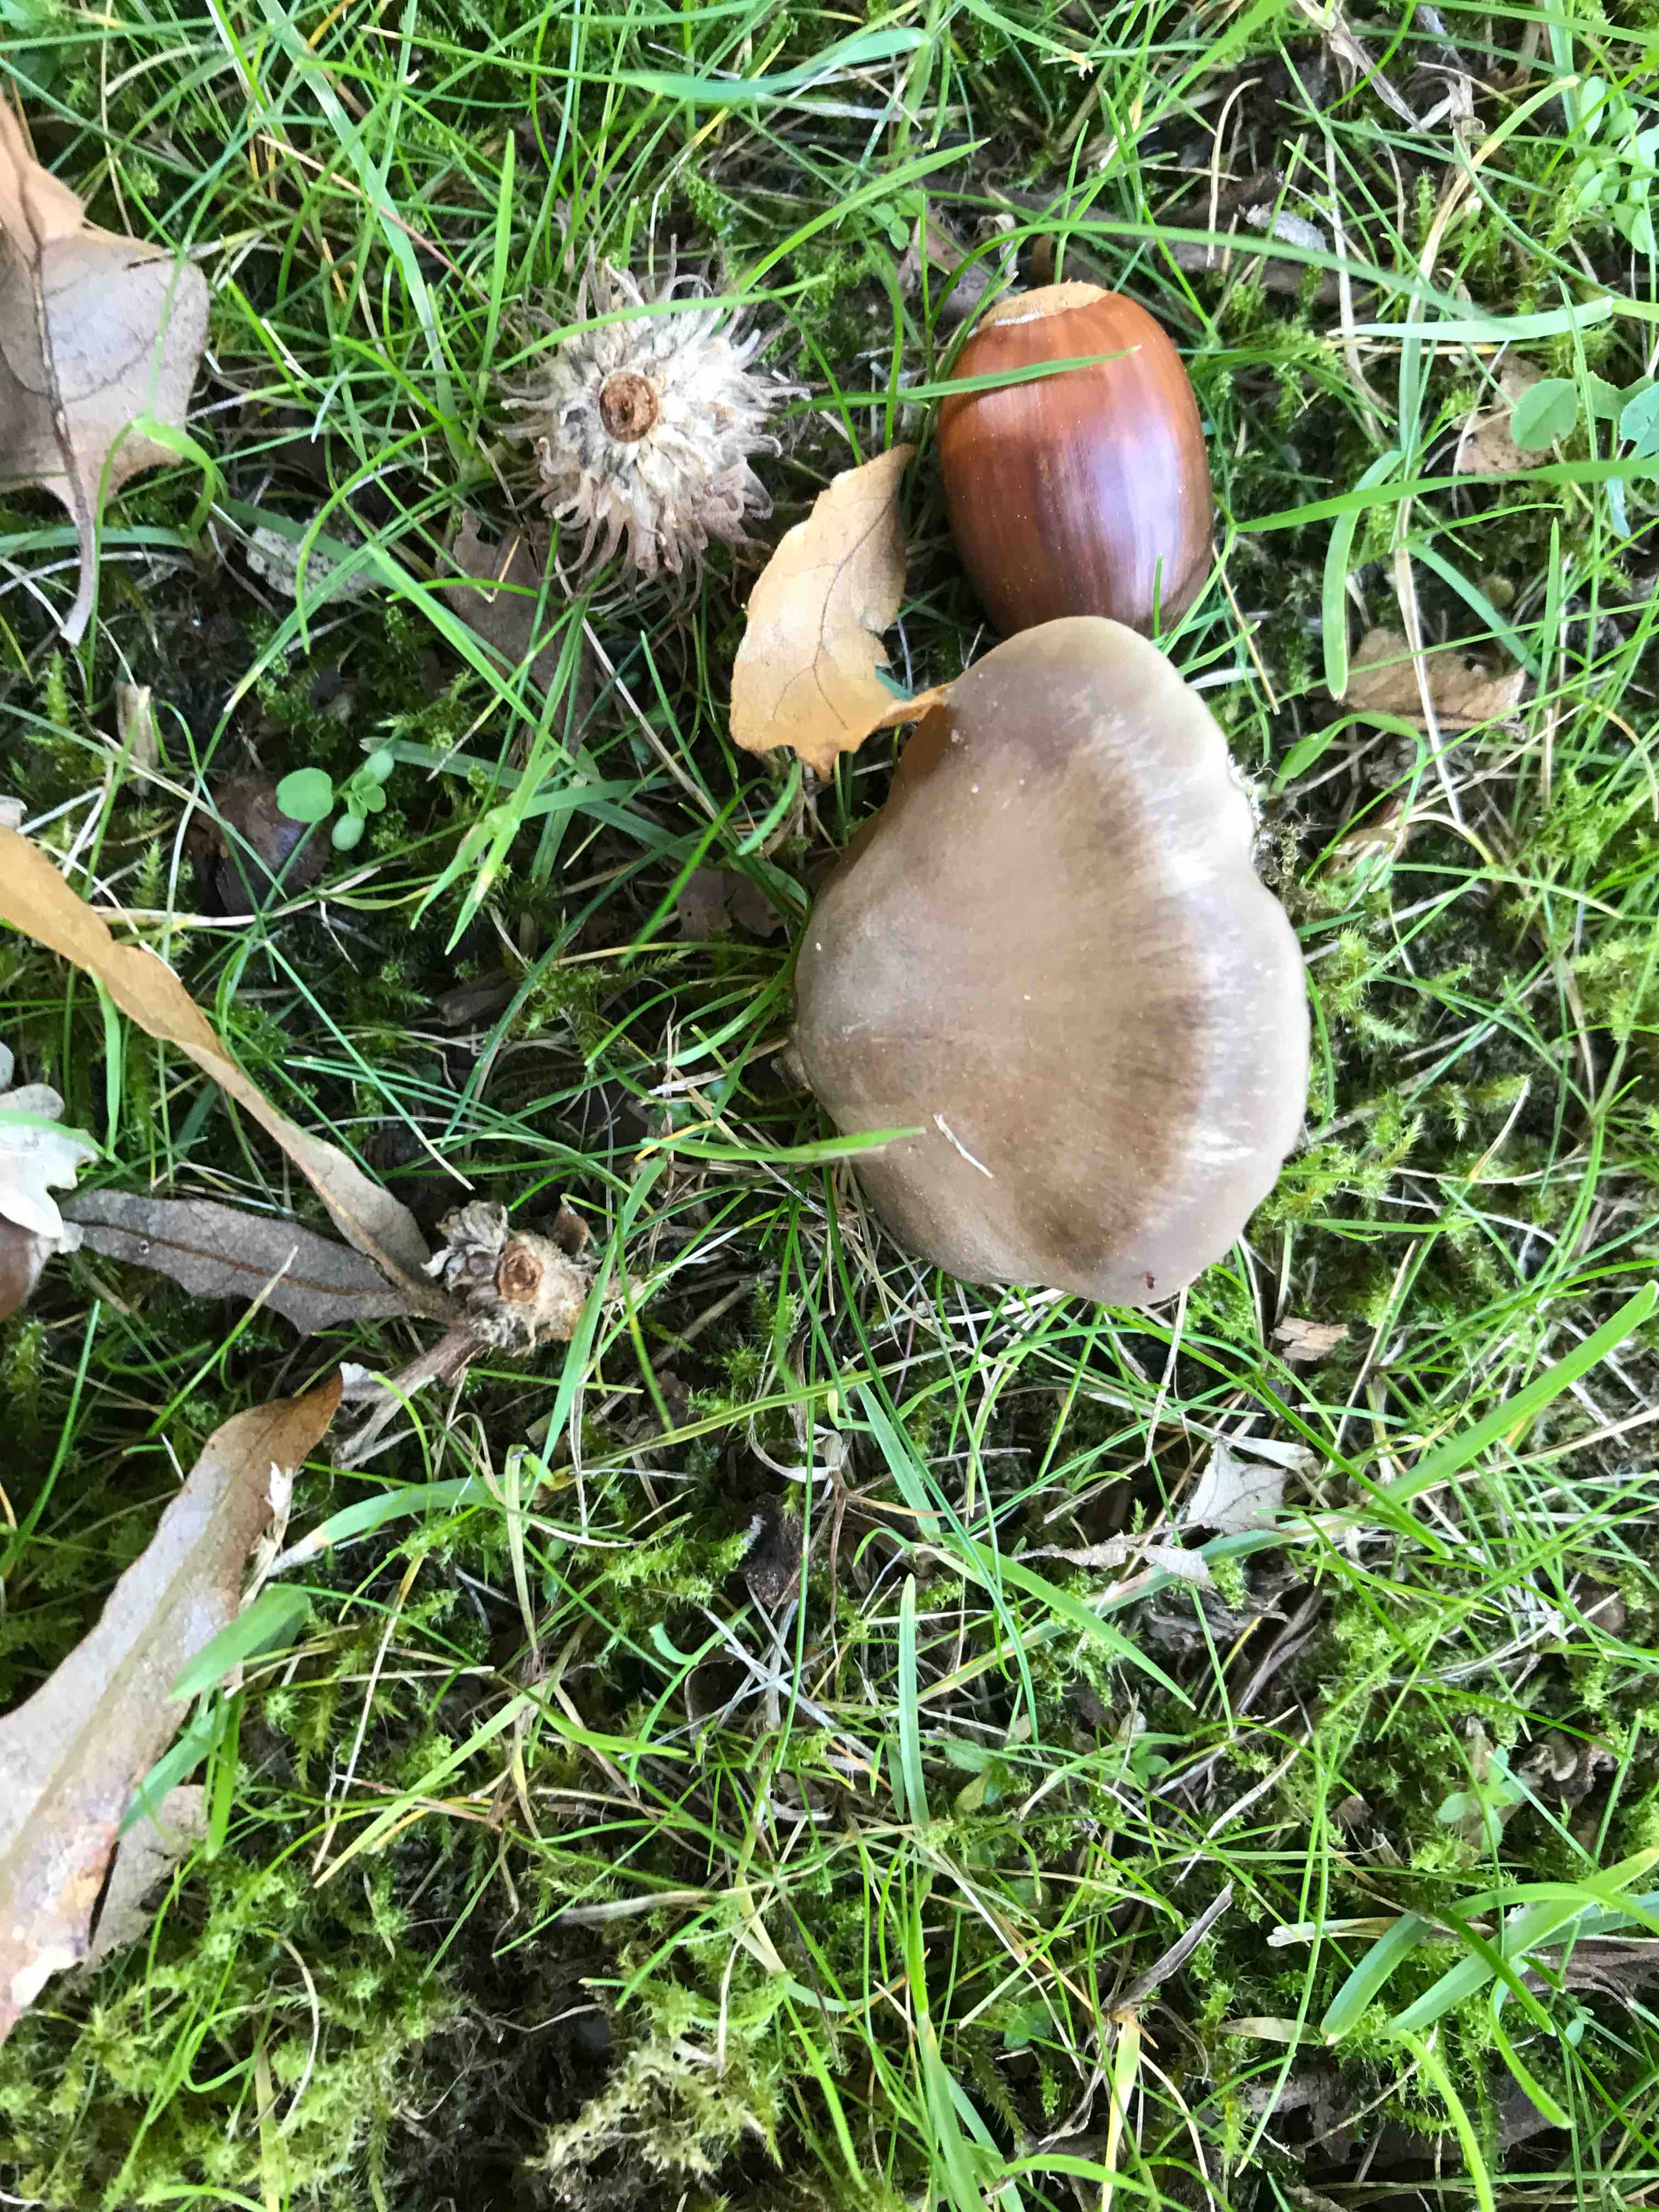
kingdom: Fungi
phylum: Basidiomycota
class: Agaricomycetes
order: Agaricales
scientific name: Agaricales
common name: champignonordenen
